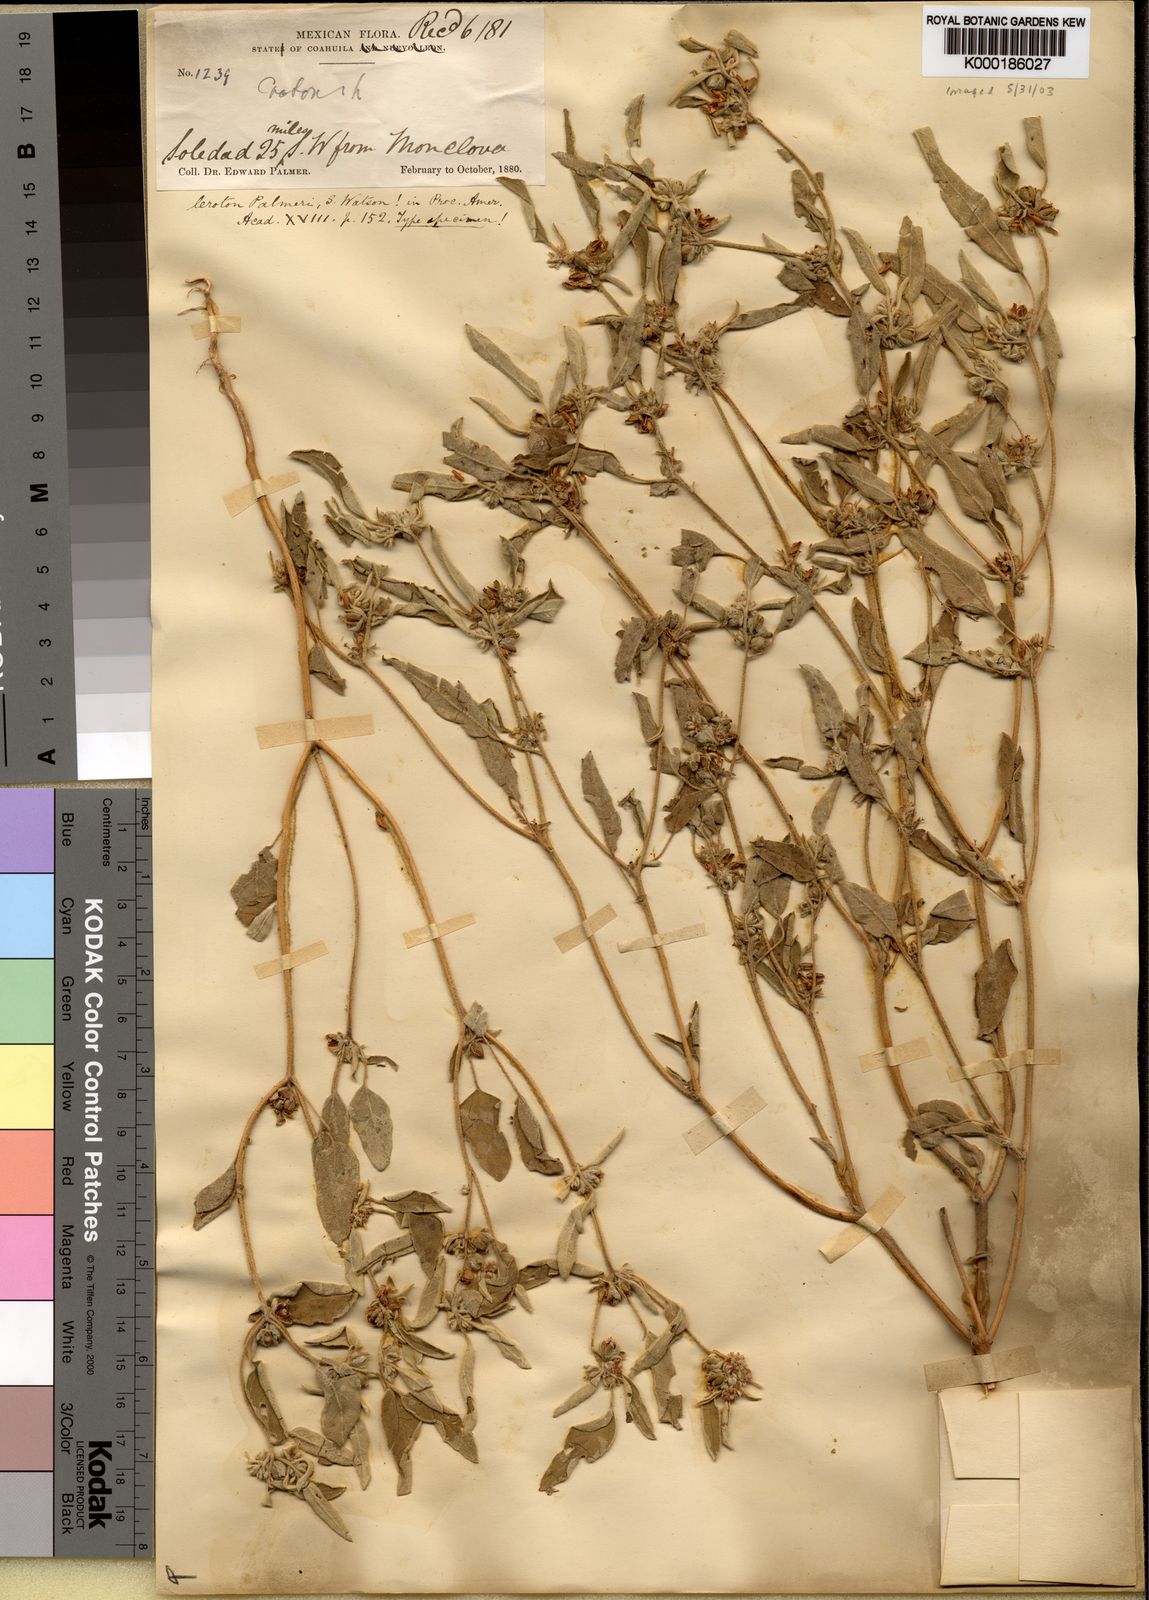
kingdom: Plantae
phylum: Tracheophyta
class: Magnoliopsida
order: Malpighiales
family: Euphorbiaceae
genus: Croton
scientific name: Croton palmeri
